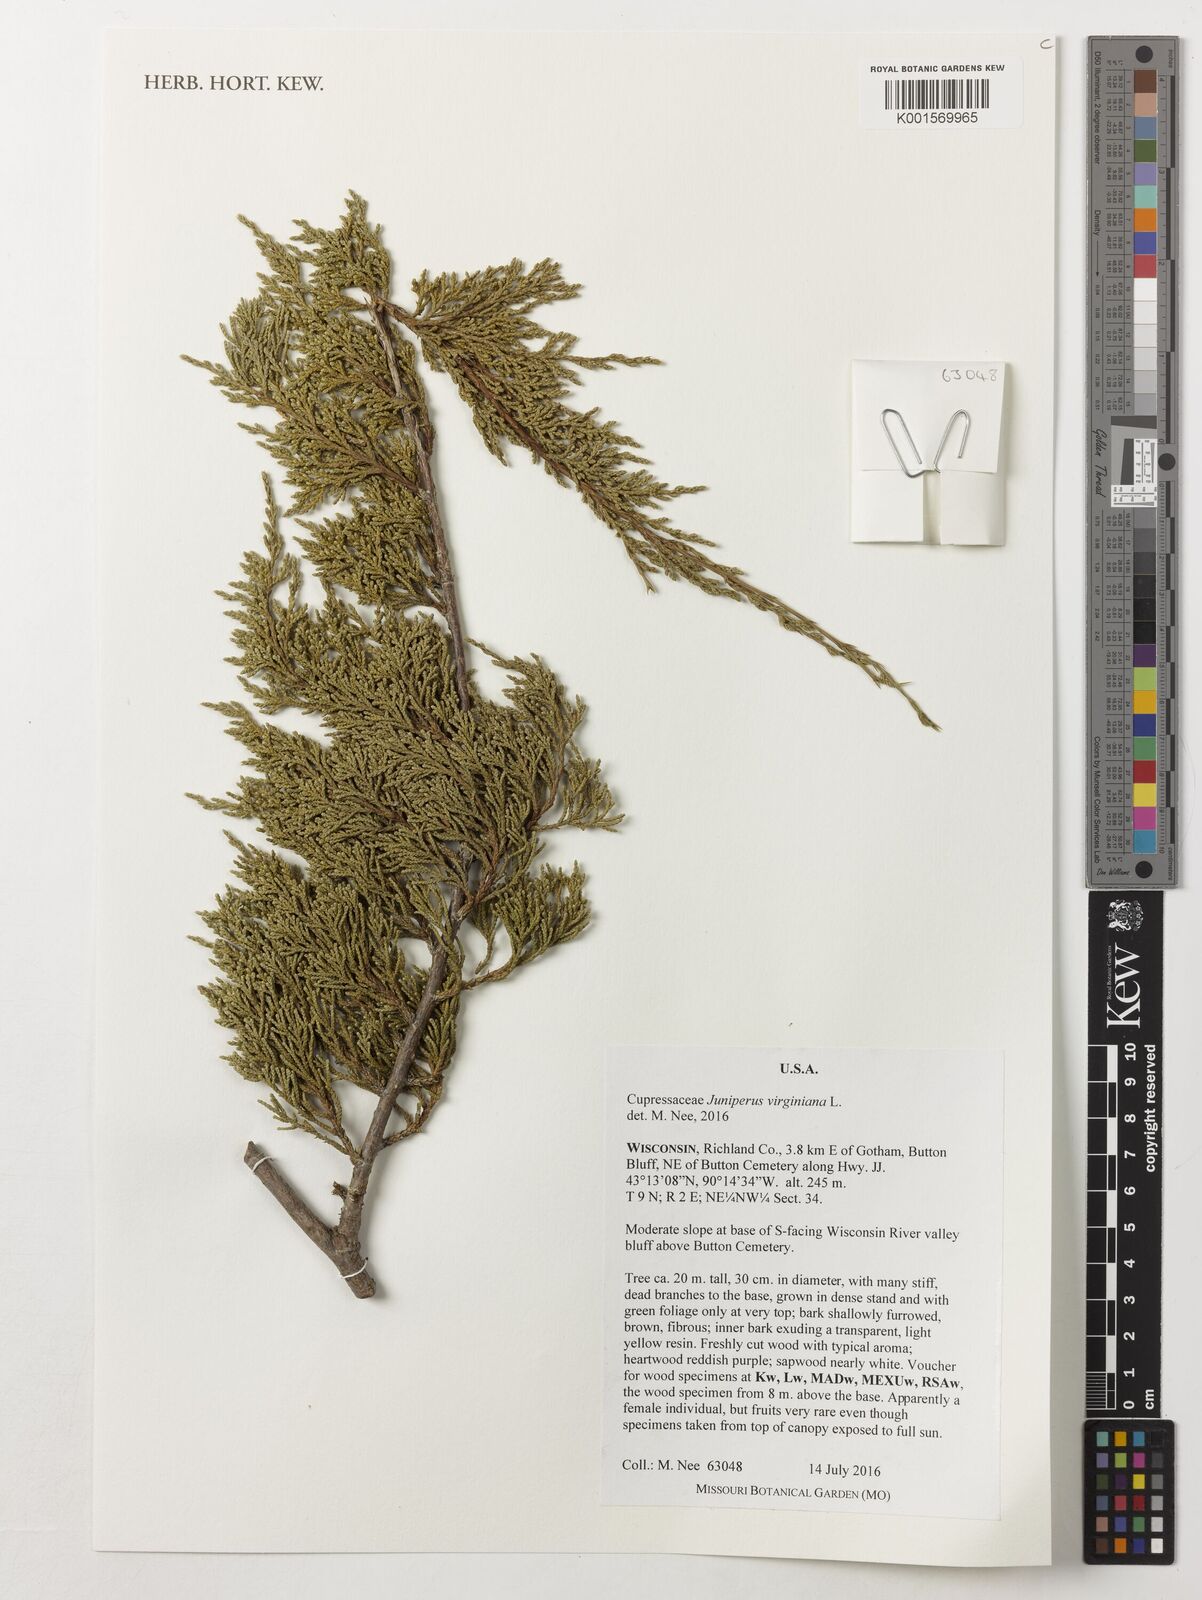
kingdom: Plantae
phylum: Tracheophyta
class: Pinopsida
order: Pinales
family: Cupressaceae
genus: Juniperus
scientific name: Juniperus virginiana
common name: Red juniper
